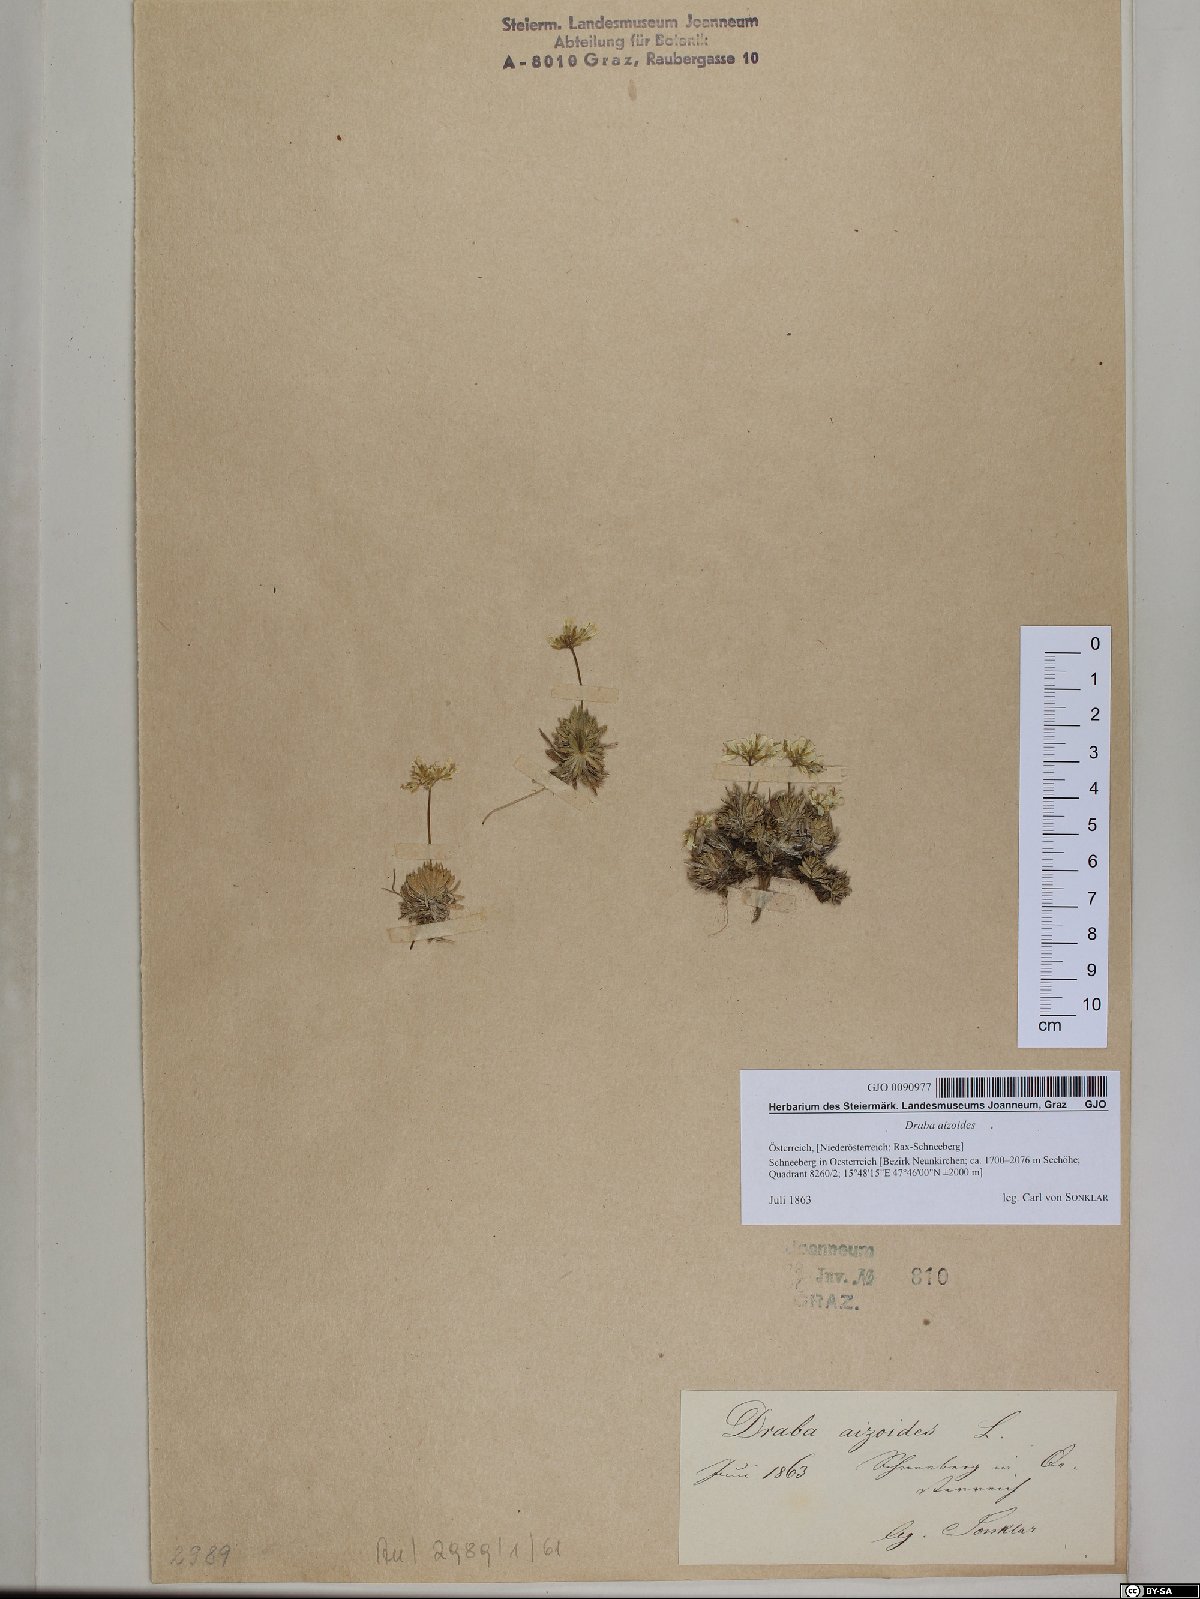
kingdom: Plantae
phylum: Tracheophyta
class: Magnoliopsida
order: Brassicales
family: Brassicaceae
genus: Draba
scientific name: Draba aizoides
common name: Yellow whitlowgrass
